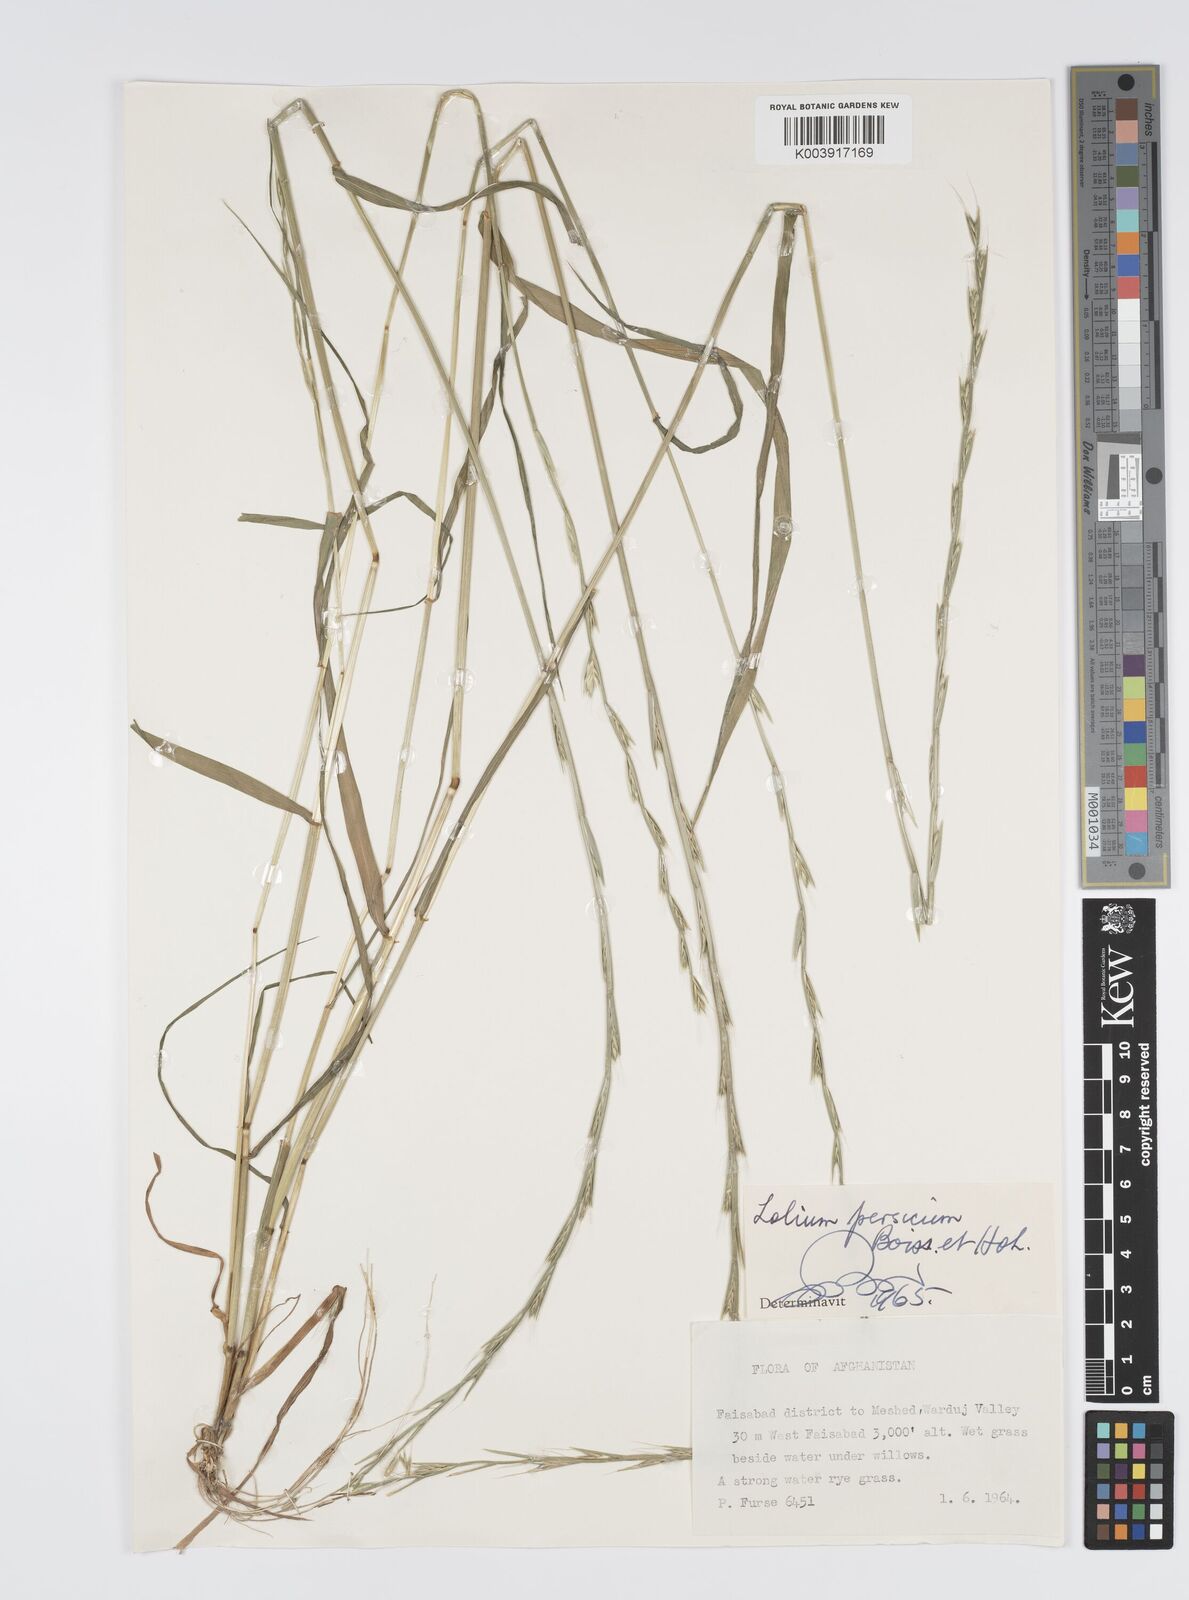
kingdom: Plantae
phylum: Tracheophyta
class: Liliopsida
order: Poales
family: Poaceae
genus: Lolium
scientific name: Lolium persicum
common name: Persian ryegrass
